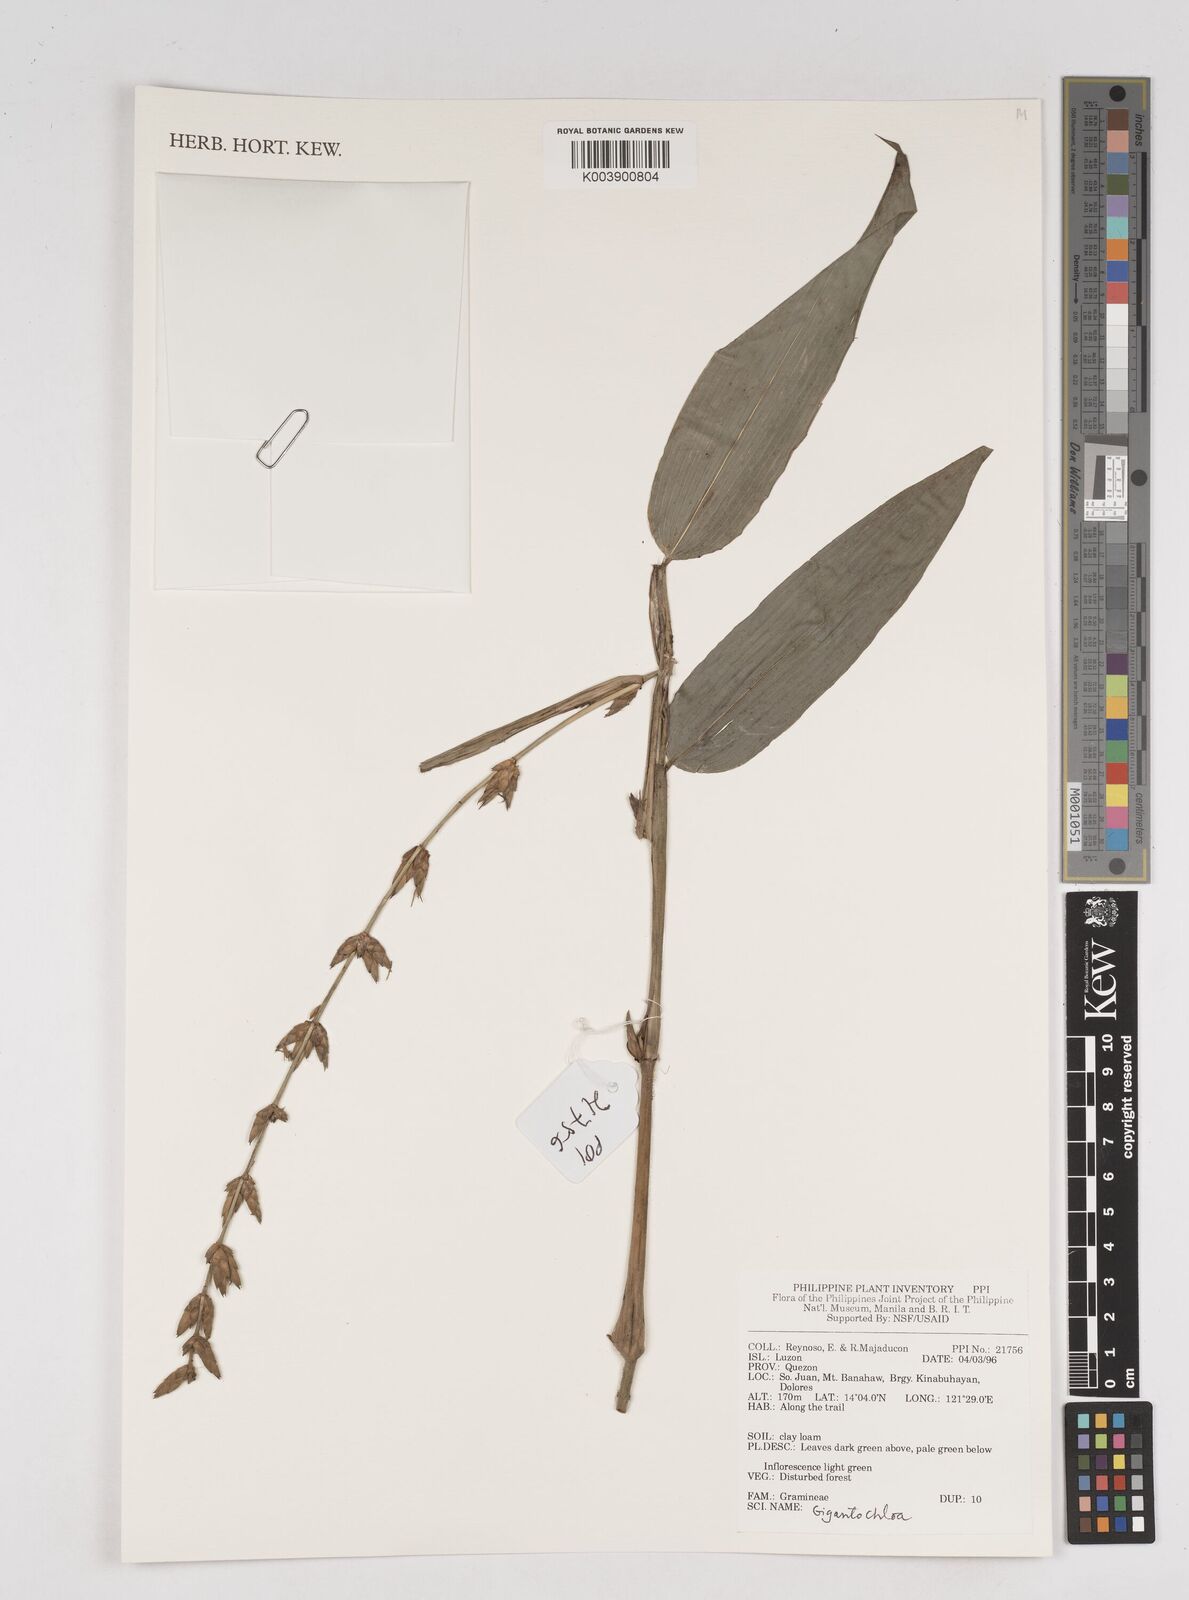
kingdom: Plantae
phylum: Tracheophyta
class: Liliopsida
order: Poales
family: Poaceae
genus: Gigantochloa
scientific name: Gigantochloa levis
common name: Smooth-shoot gigantochloa
